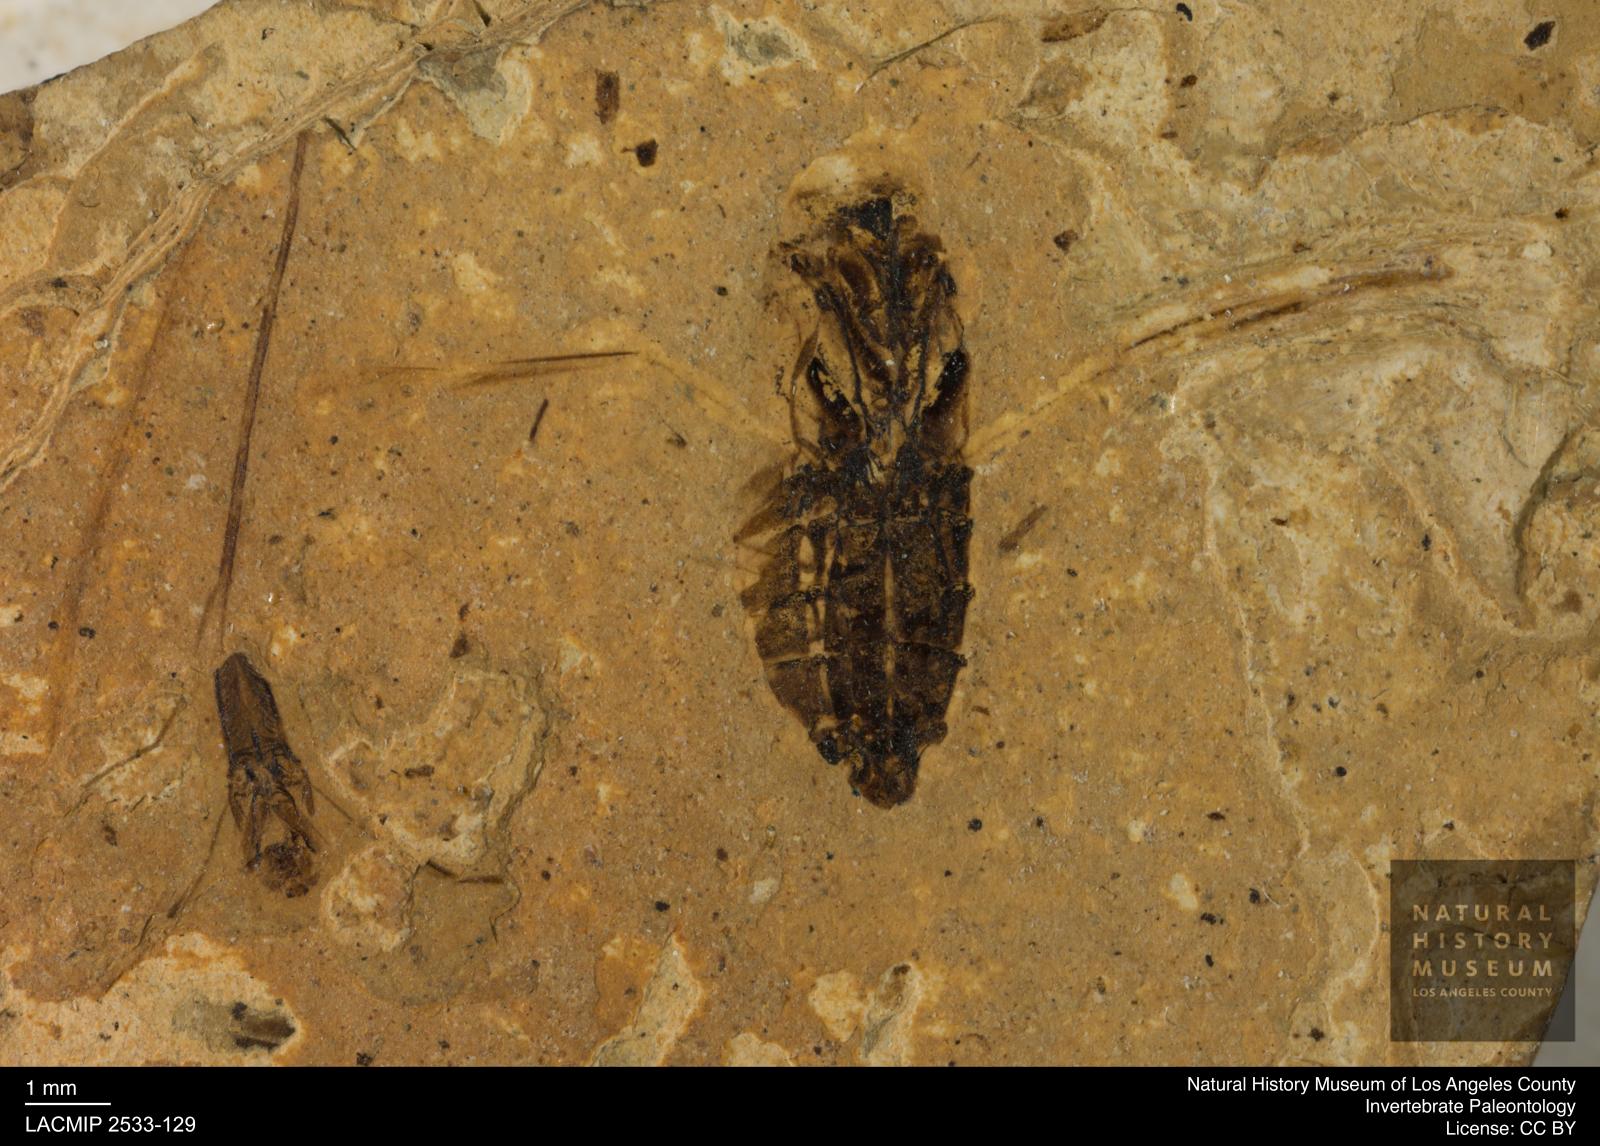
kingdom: Animalia
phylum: Arthropoda
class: Insecta
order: Hemiptera
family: Notonectidae
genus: Anisops
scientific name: Anisops Notonecta heydeni
